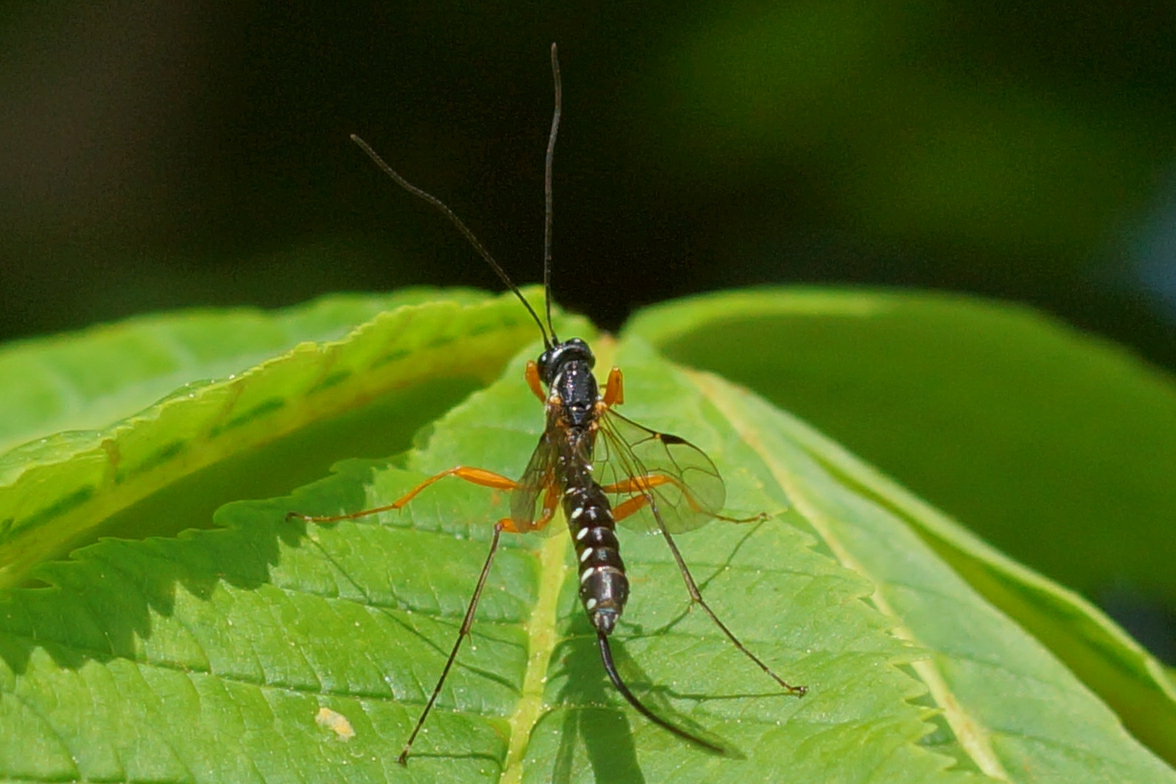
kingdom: Animalia
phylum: Arthropoda
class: Insecta
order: Hymenoptera
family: Ichneumonidae
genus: Rhyssa
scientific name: Rhyssa persuasoria
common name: Sabelhveps
